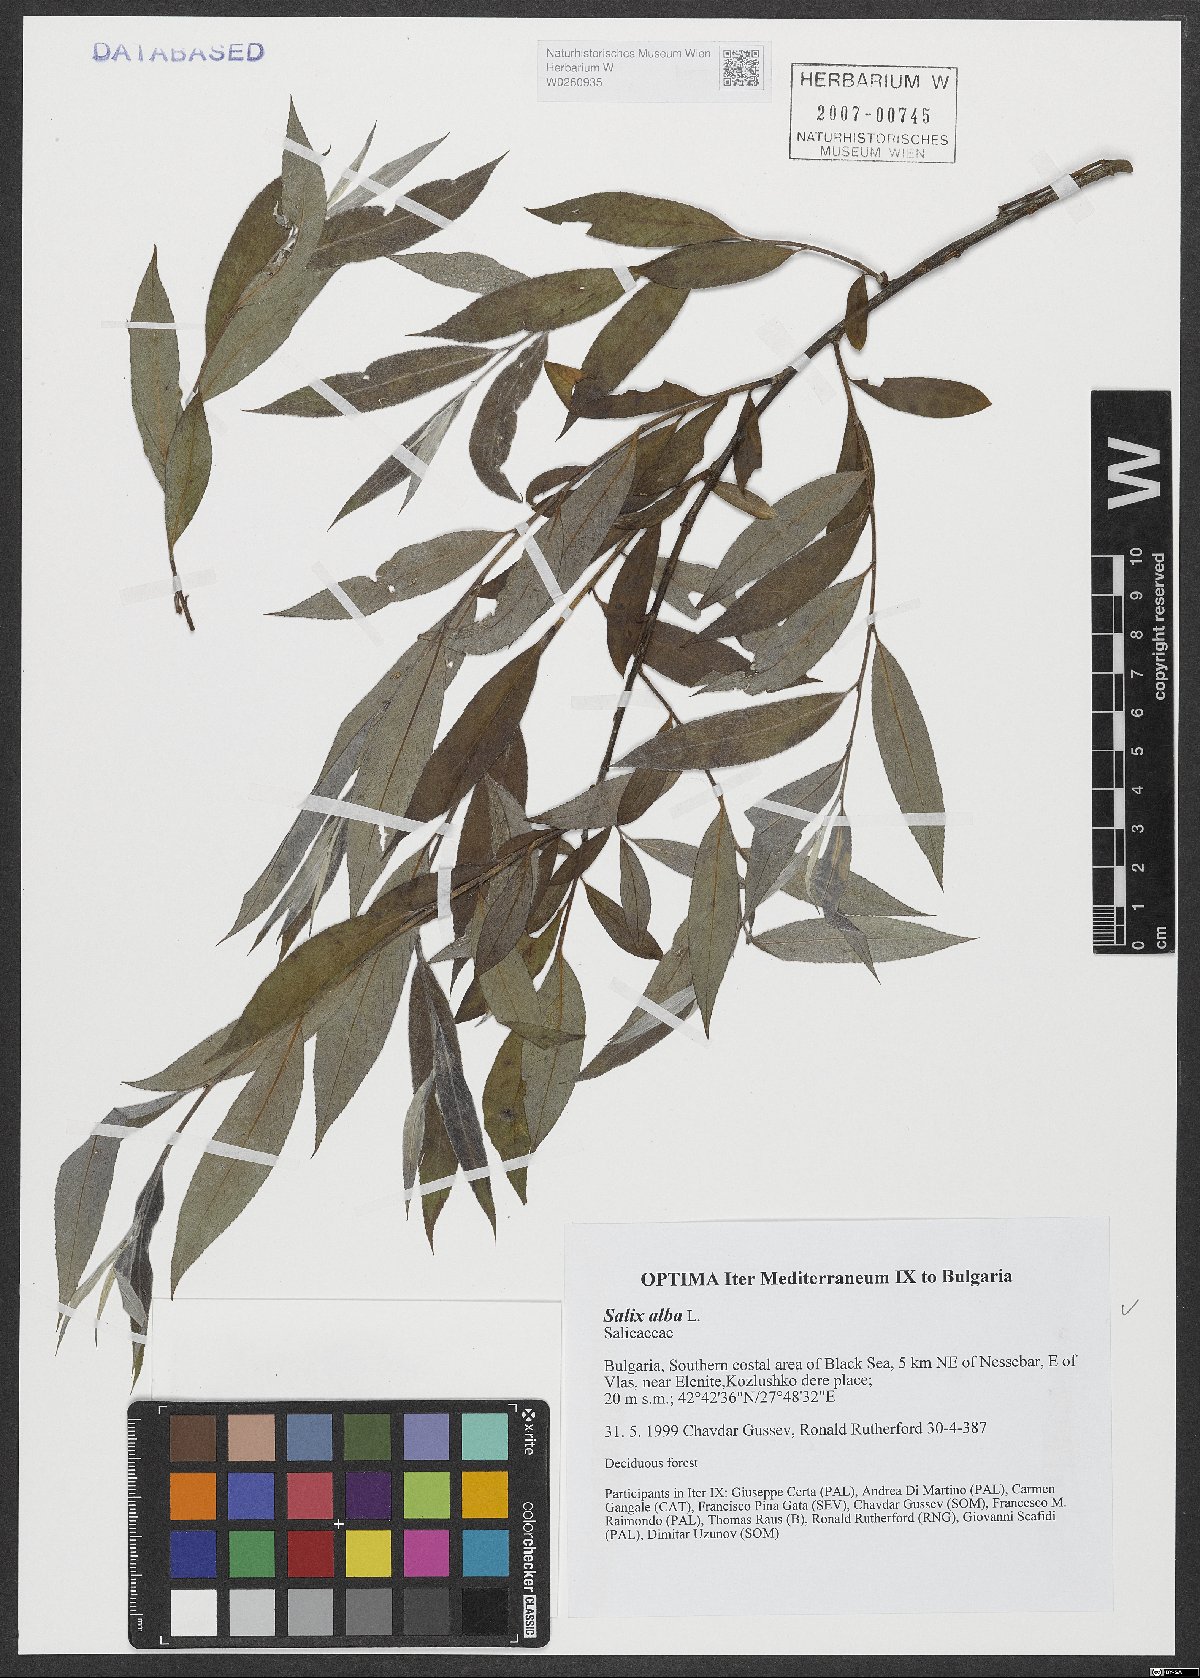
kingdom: Plantae
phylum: Tracheophyta
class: Magnoliopsida
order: Malpighiales
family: Salicaceae
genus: Salix
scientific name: Salix alba
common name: White willow
